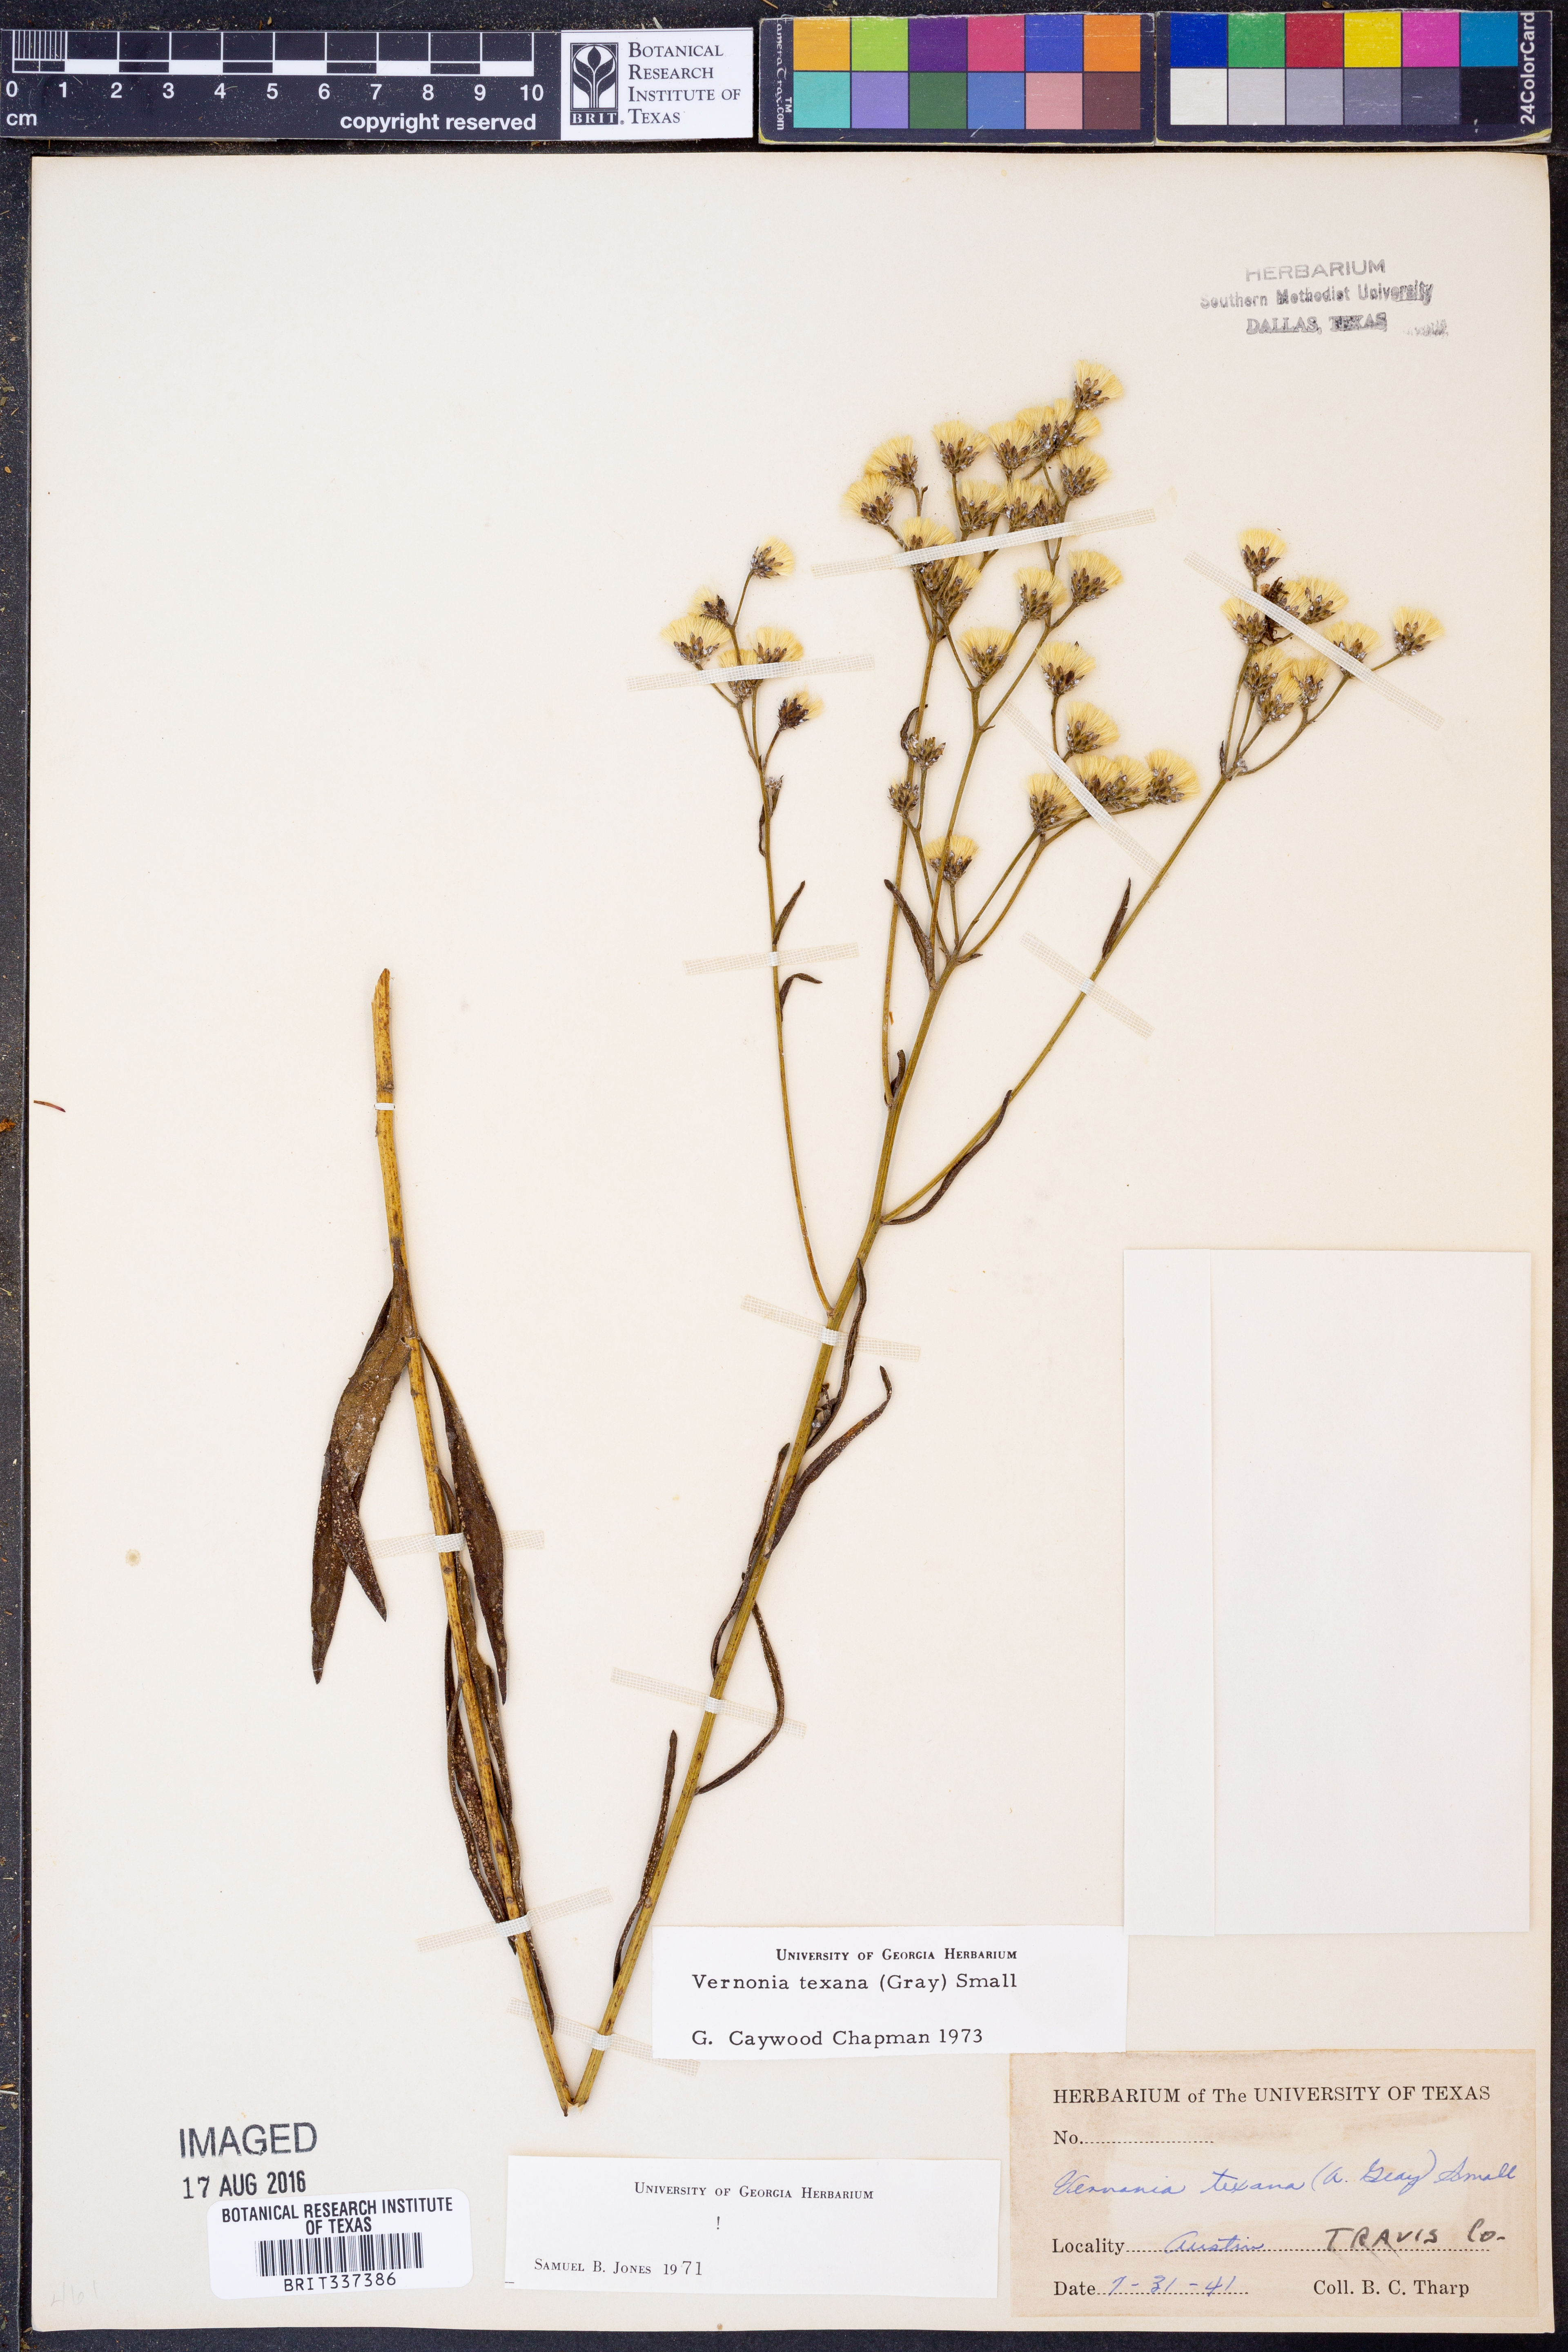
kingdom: Plantae
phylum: Tracheophyta
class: Magnoliopsida
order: Asterales
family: Asteraceae
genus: Vernonia
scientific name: Vernonia texana
